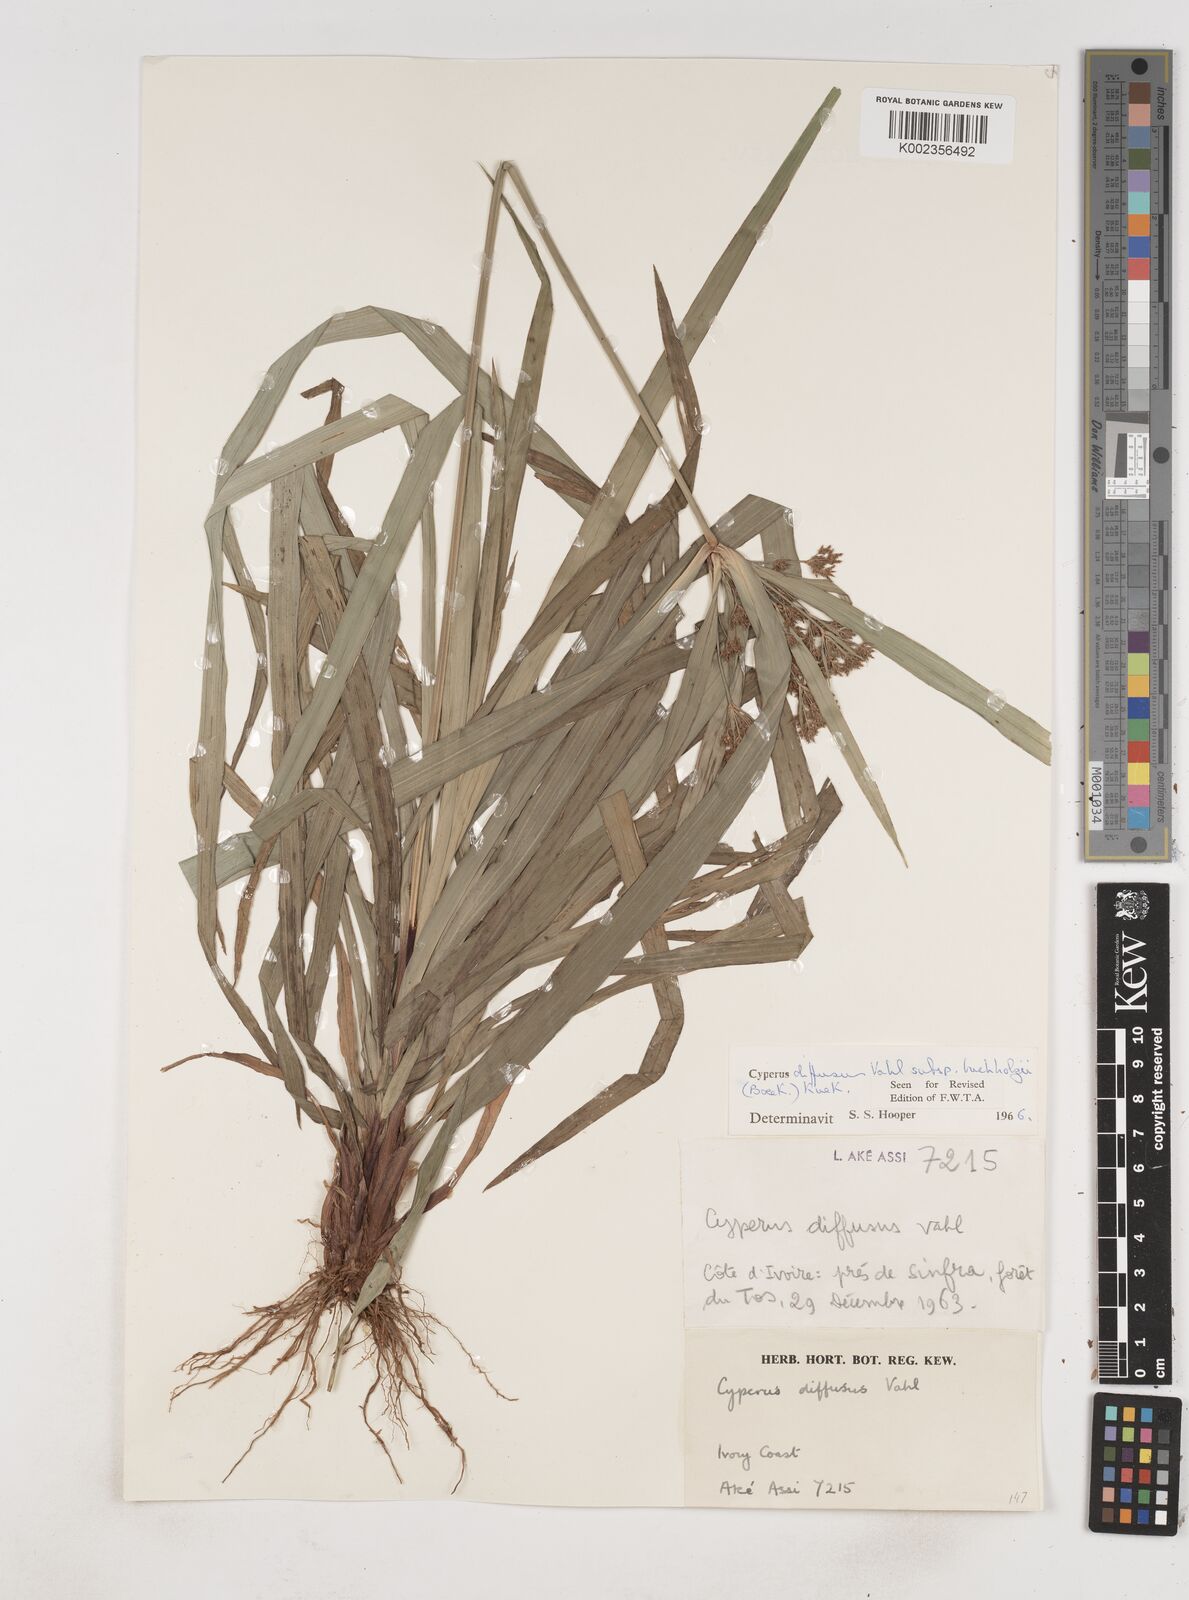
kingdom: Plantae
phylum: Tracheophyta
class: Liliopsida
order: Poales
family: Cyperaceae
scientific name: Cyperaceae
